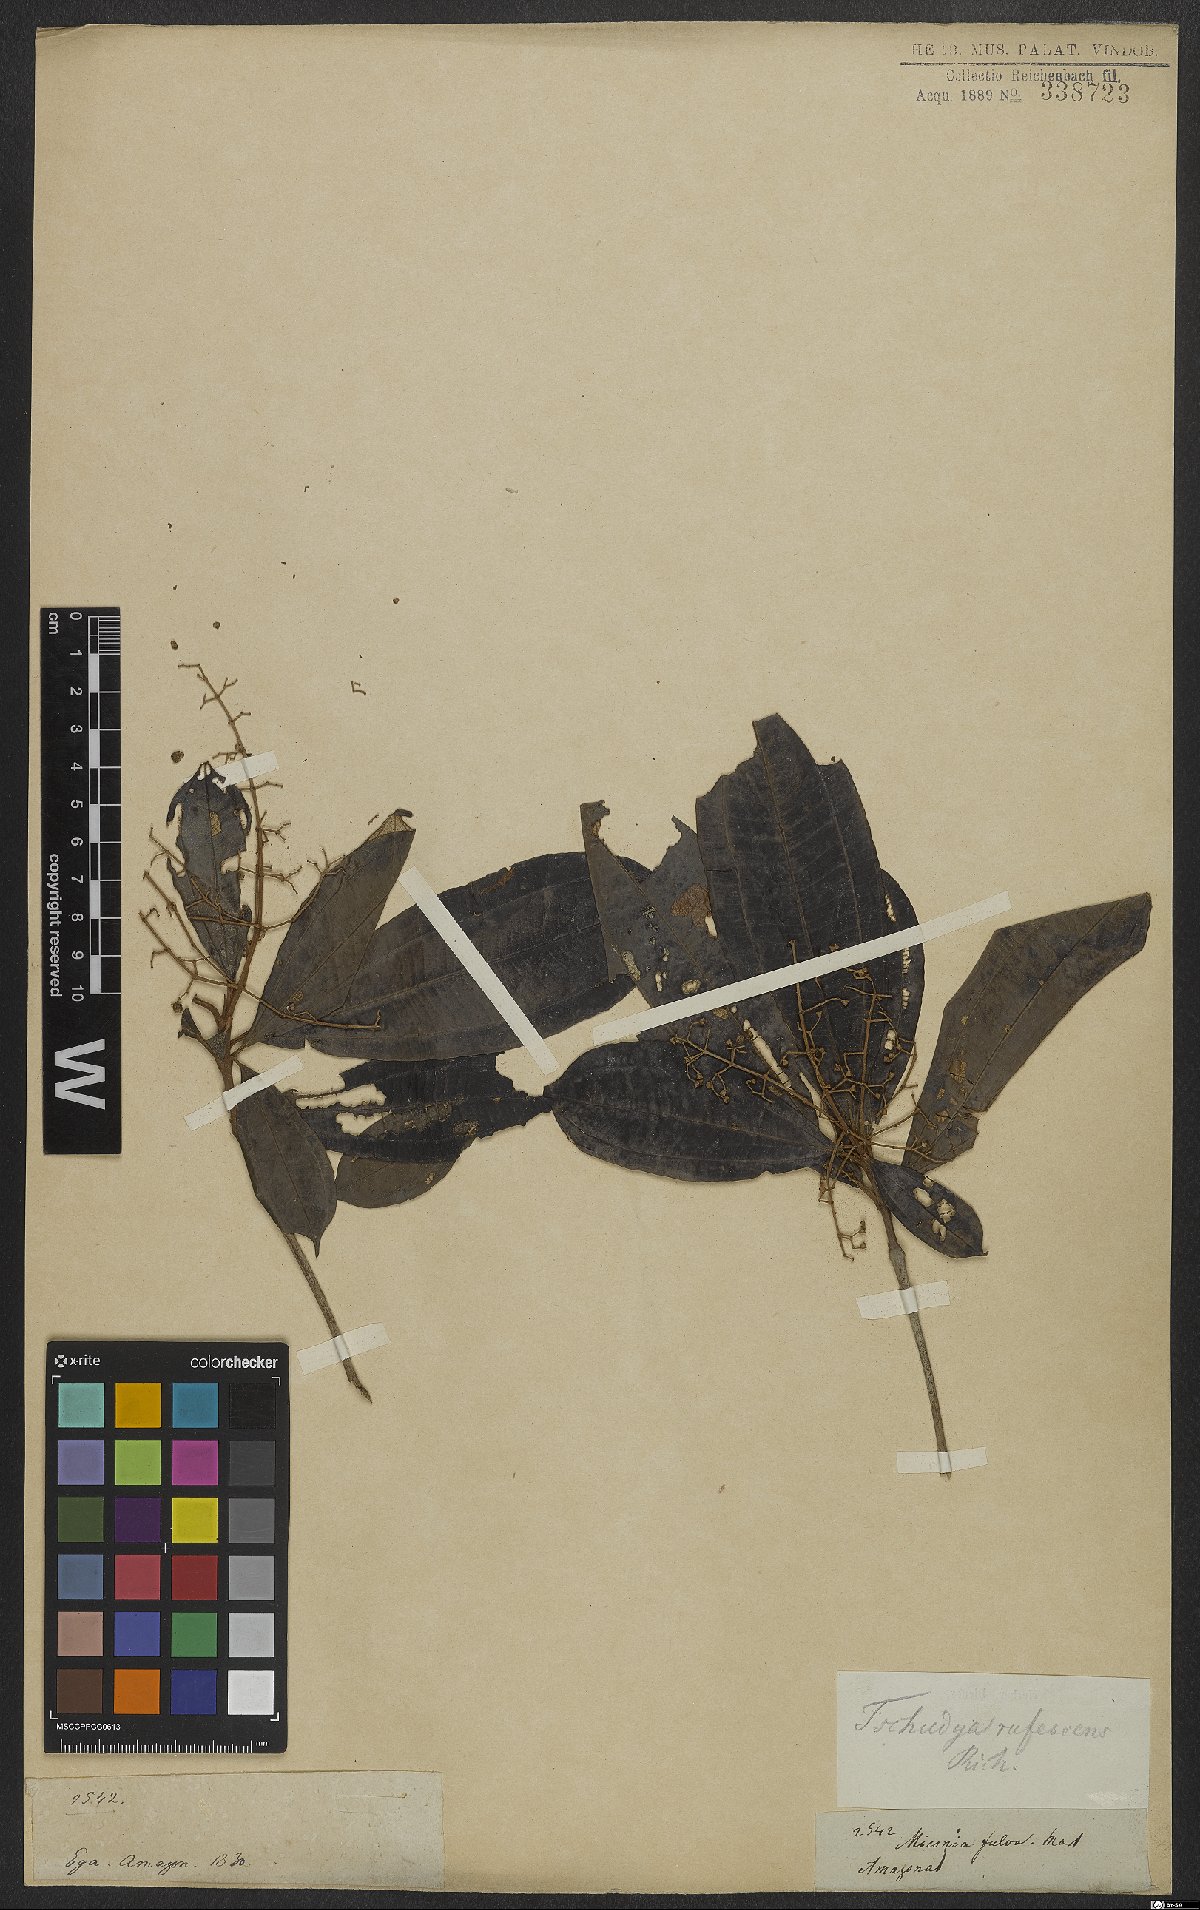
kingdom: Plantae
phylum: Tracheophyta
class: Magnoliopsida
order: Myrtales
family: Melastomataceae
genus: Miconia
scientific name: Miconia chrysophylla
